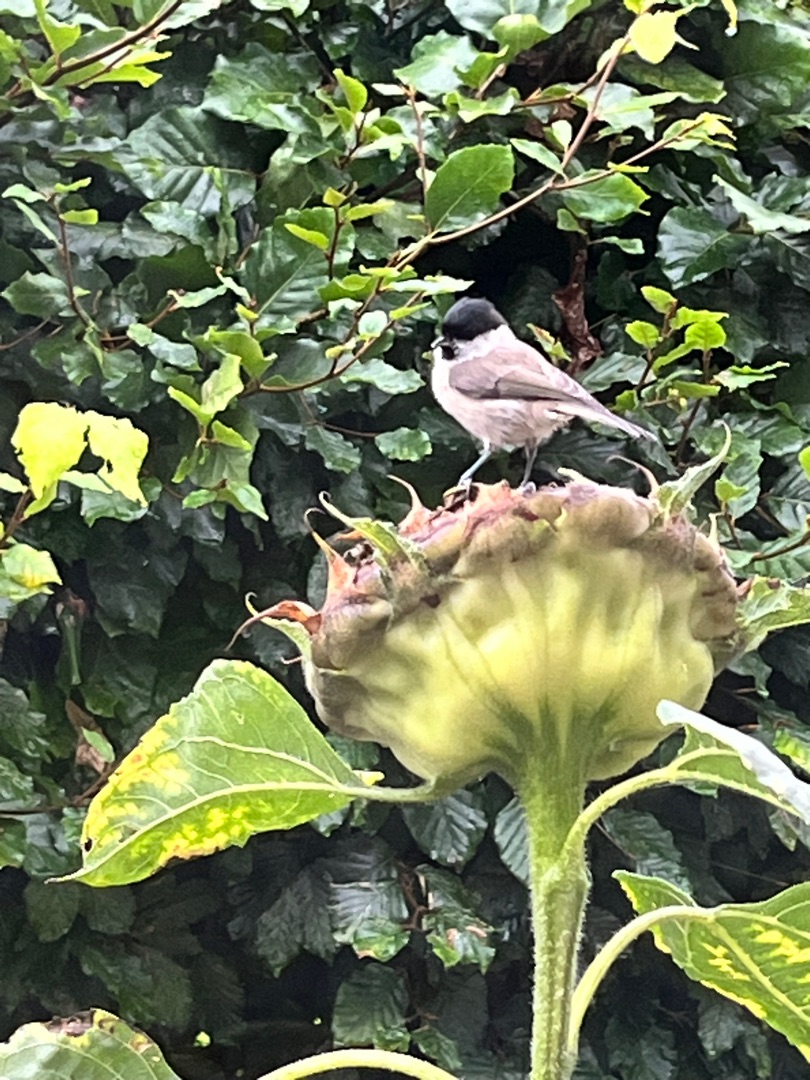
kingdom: Animalia
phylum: Chordata
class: Aves
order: Passeriformes
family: Paridae
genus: Poecile
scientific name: Poecile palustris
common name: Sumpmejse
